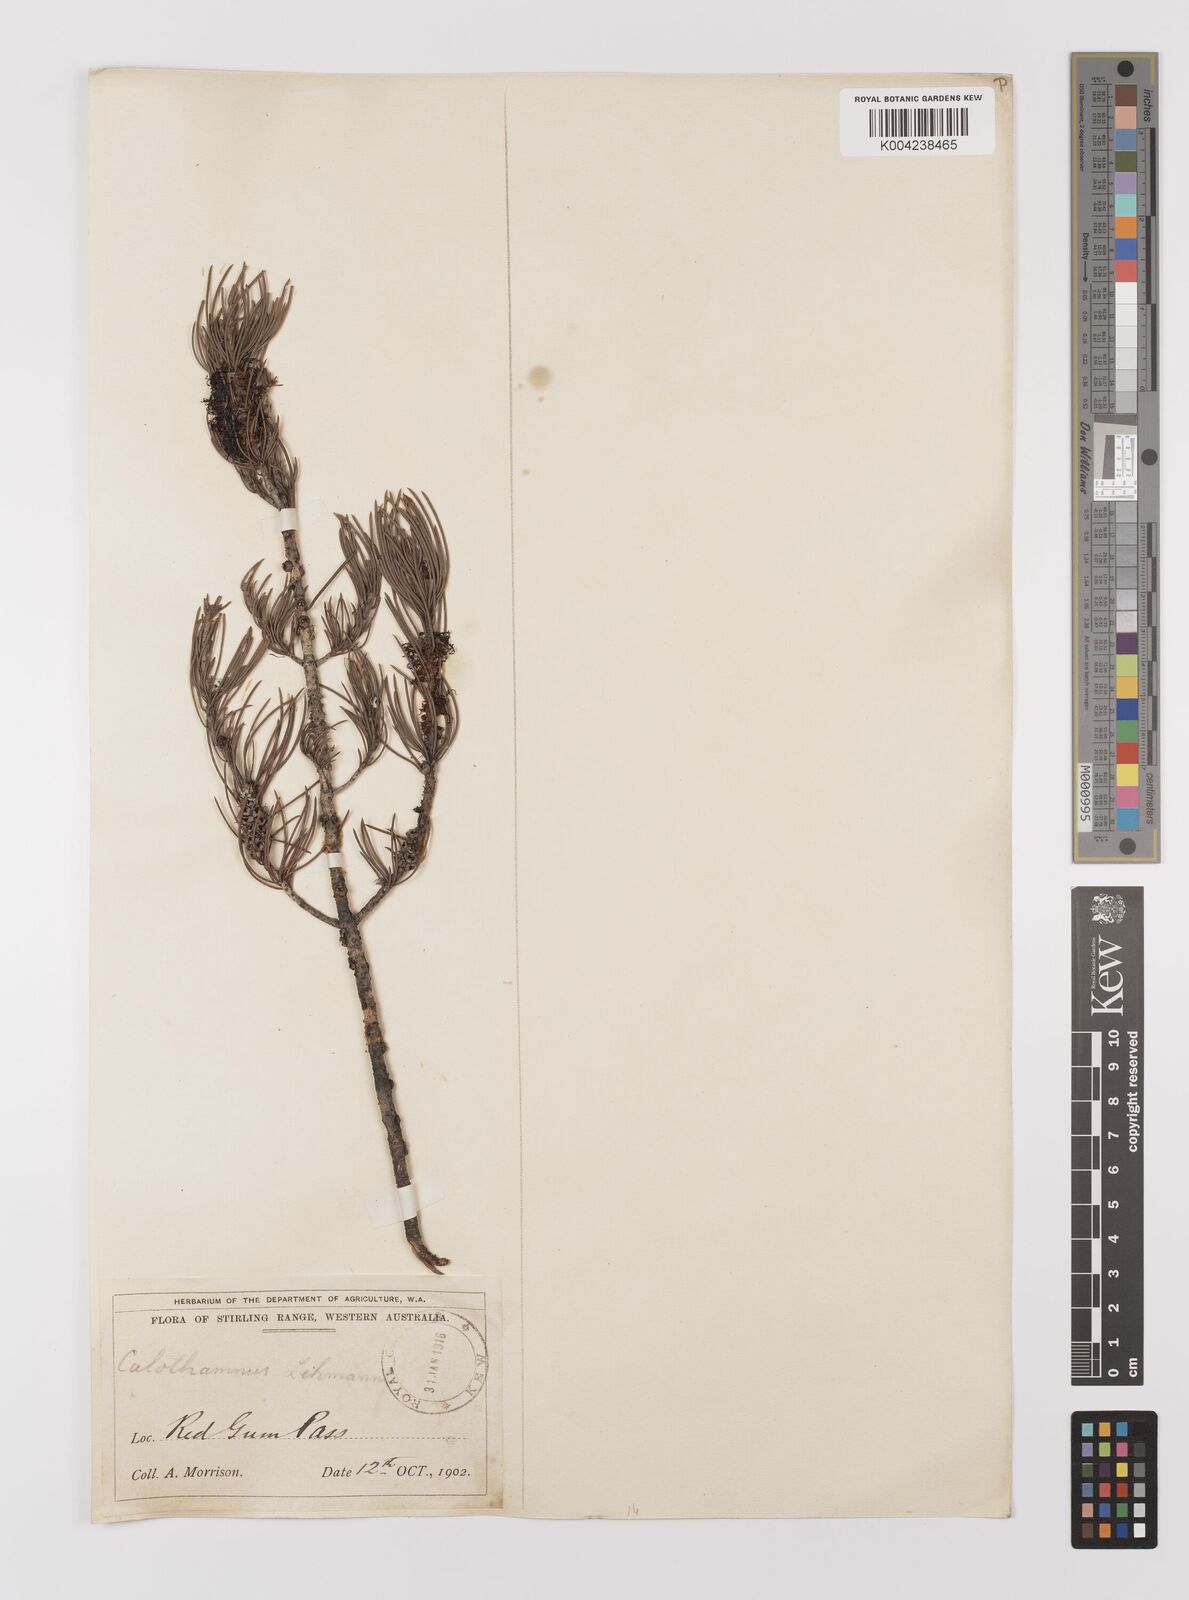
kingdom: Plantae
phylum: Tracheophyta
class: Magnoliopsida
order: Myrtales
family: Myrtaceae
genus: Melaleuca
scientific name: Melaleuca johannis-lehmannii
